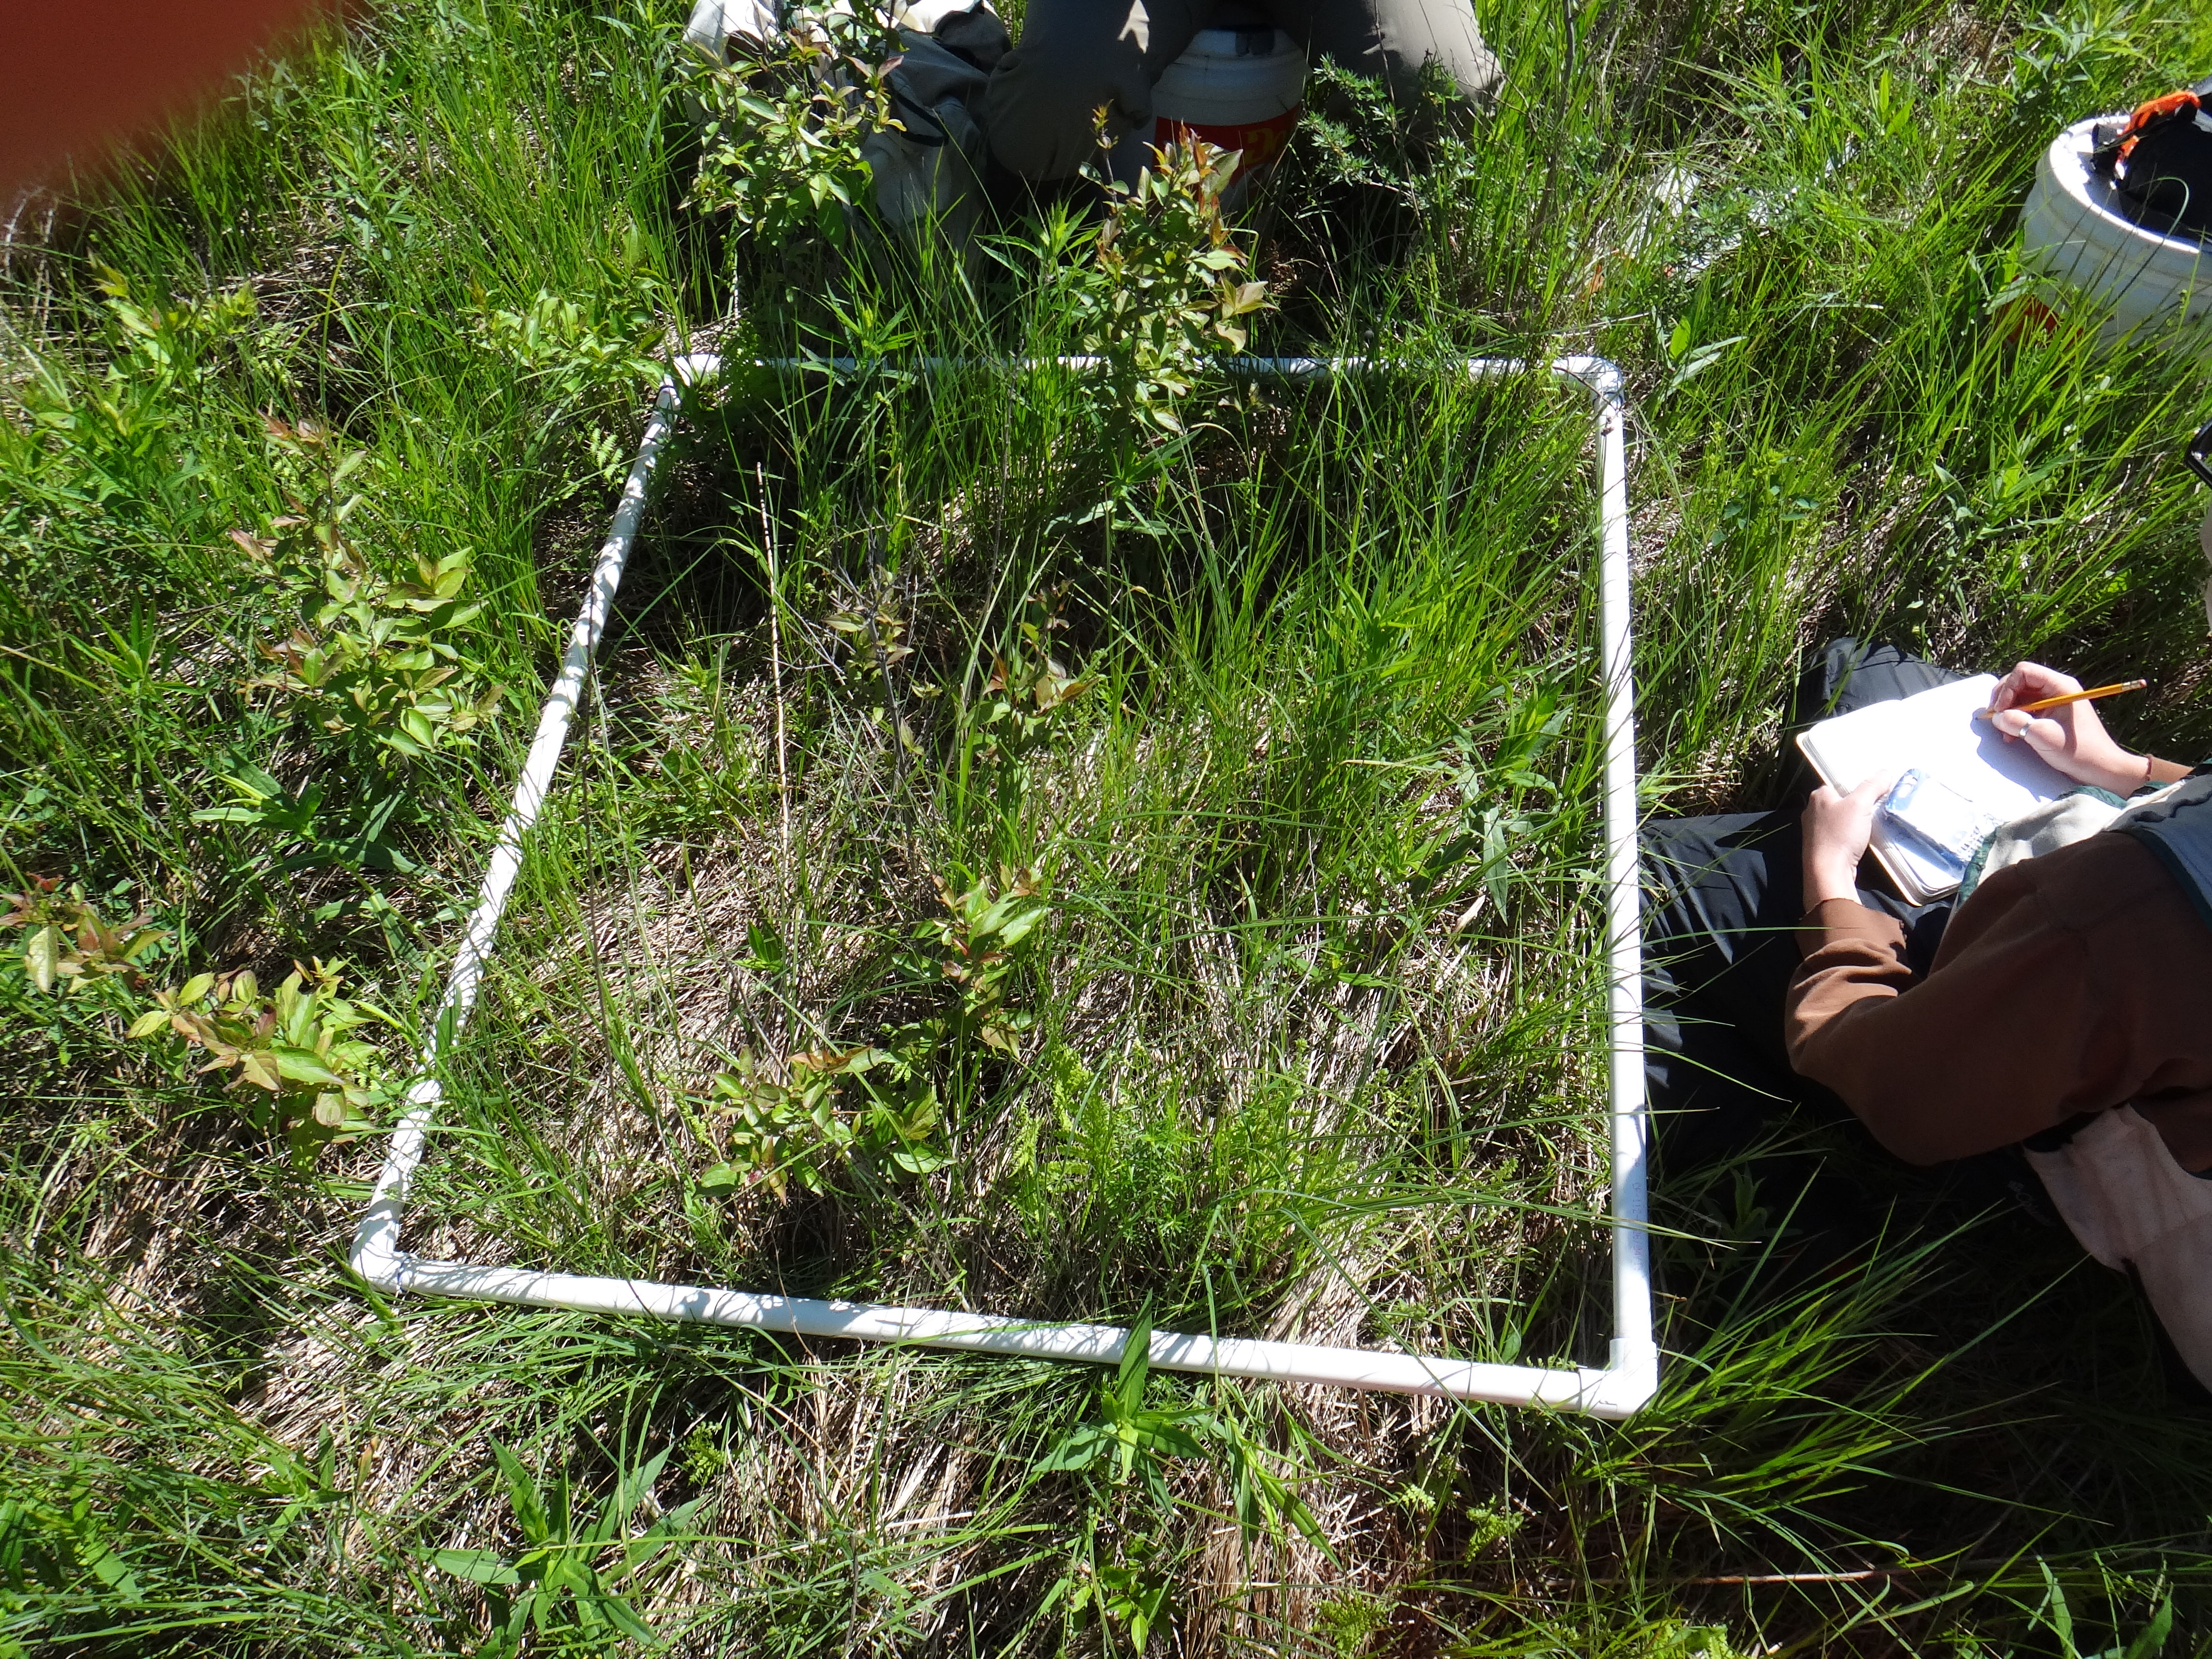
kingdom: Plantae
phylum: Tracheophyta
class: Magnoliopsida
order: Asterales
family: Asteraceae
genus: Solidago
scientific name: Solidago rugosa
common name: Rough-stemmed goldenrod
